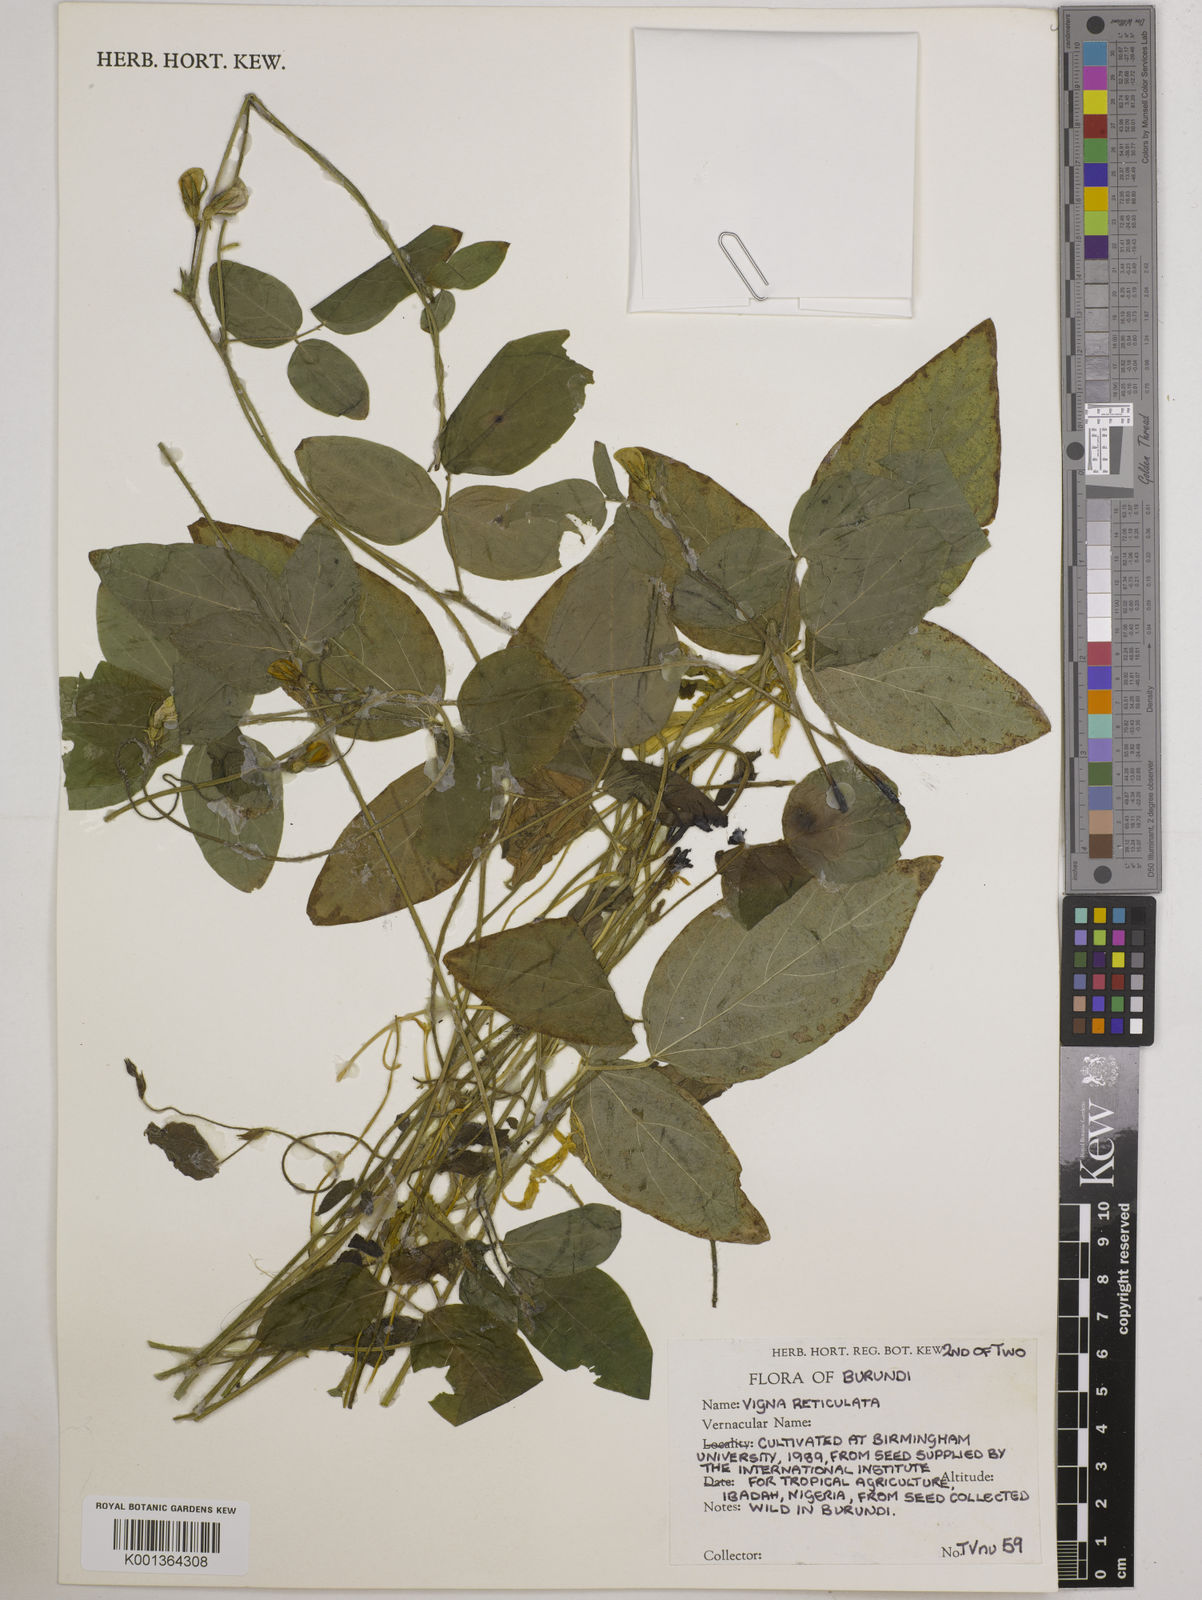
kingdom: Plantae
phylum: Tracheophyta
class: Magnoliopsida
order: Fabales
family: Fabaceae
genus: Vigna
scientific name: Vigna
